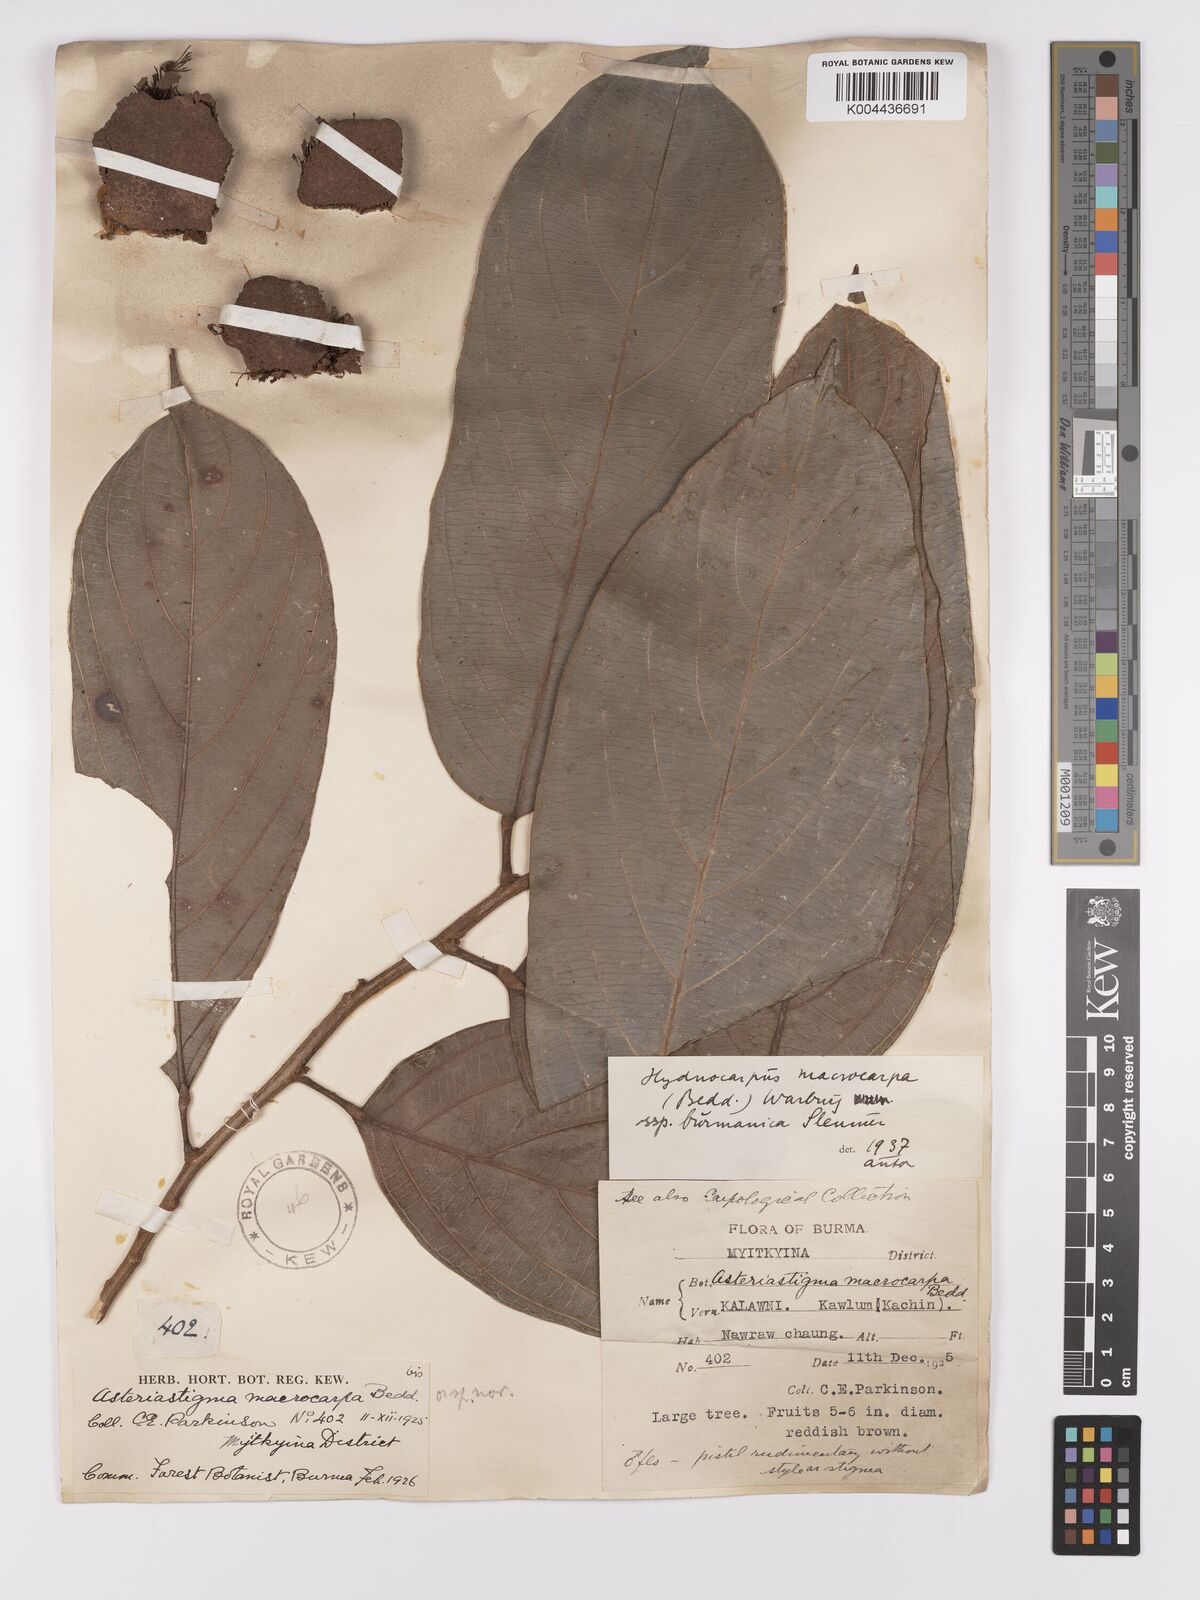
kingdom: Plantae
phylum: Tracheophyta
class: Magnoliopsida
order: Malpighiales
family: Achariaceae
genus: Hydnocarpus
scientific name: Hydnocarpus macrocarpus
